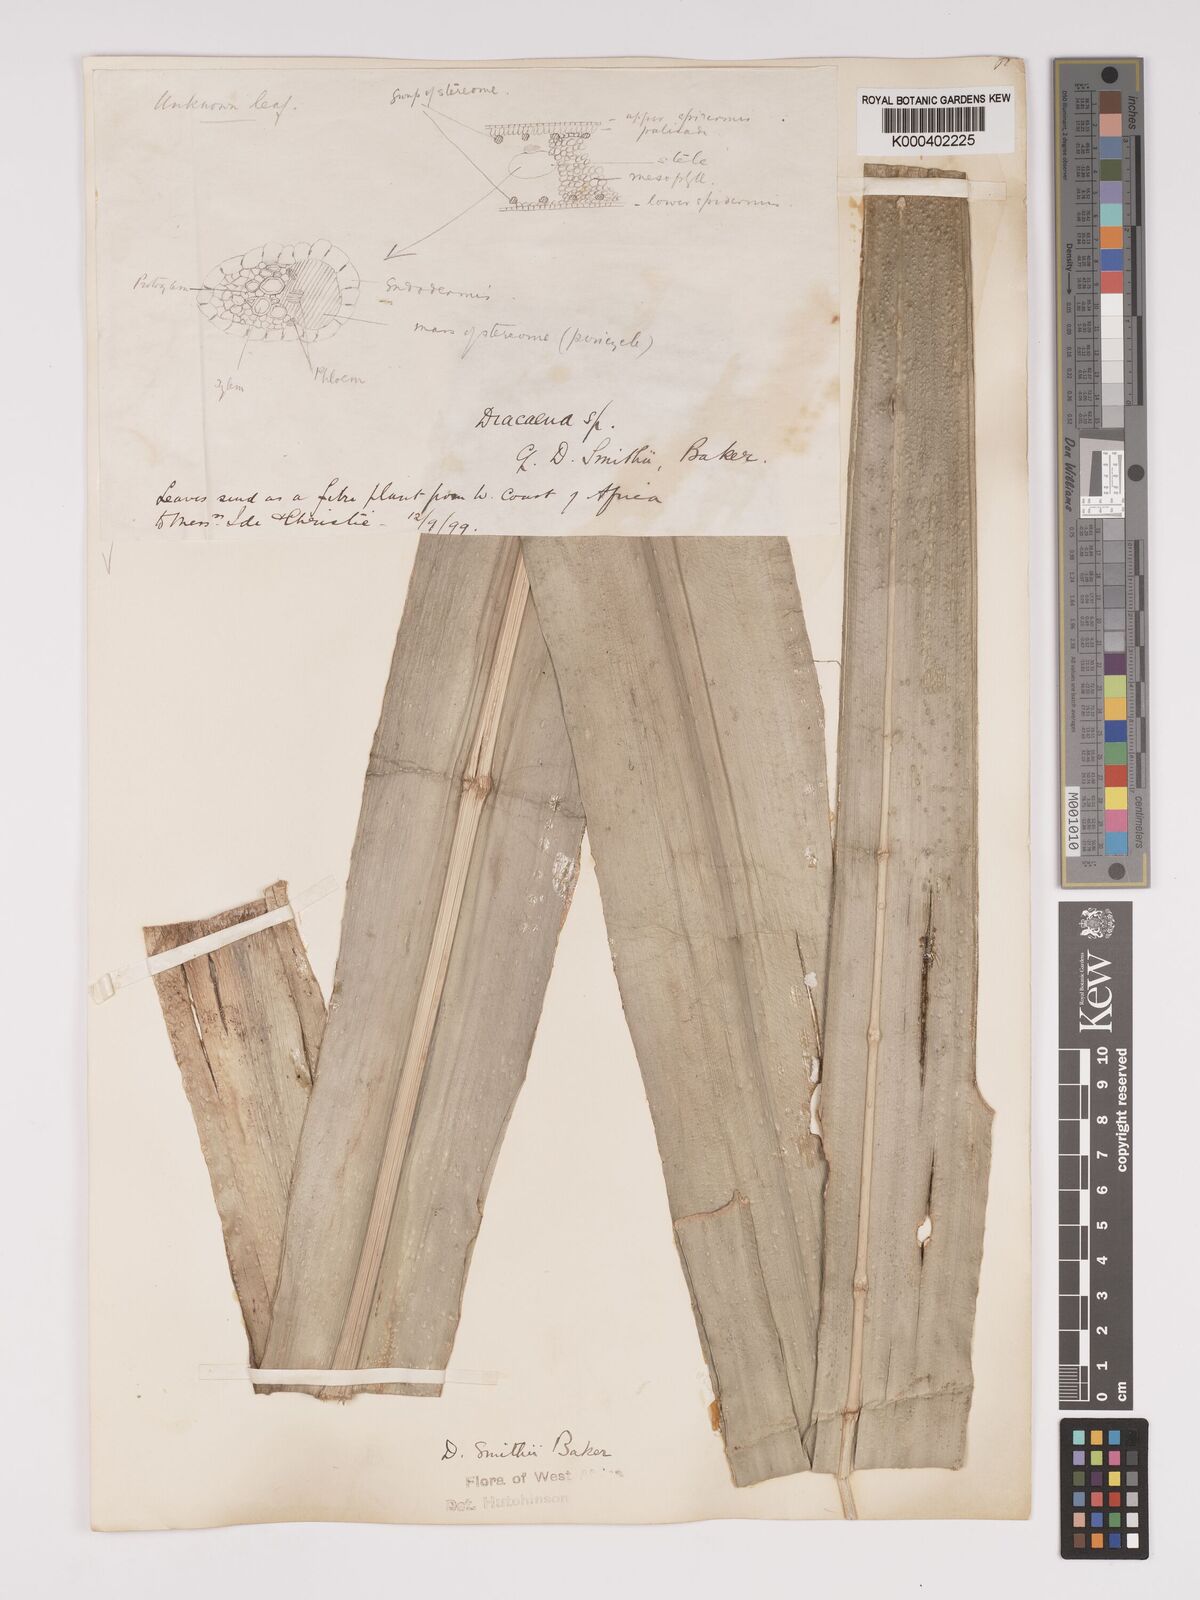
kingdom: Plantae
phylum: Tracheophyta
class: Liliopsida
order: Asparagales
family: Asparagaceae
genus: Dracaena
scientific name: Dracaena fragrans
